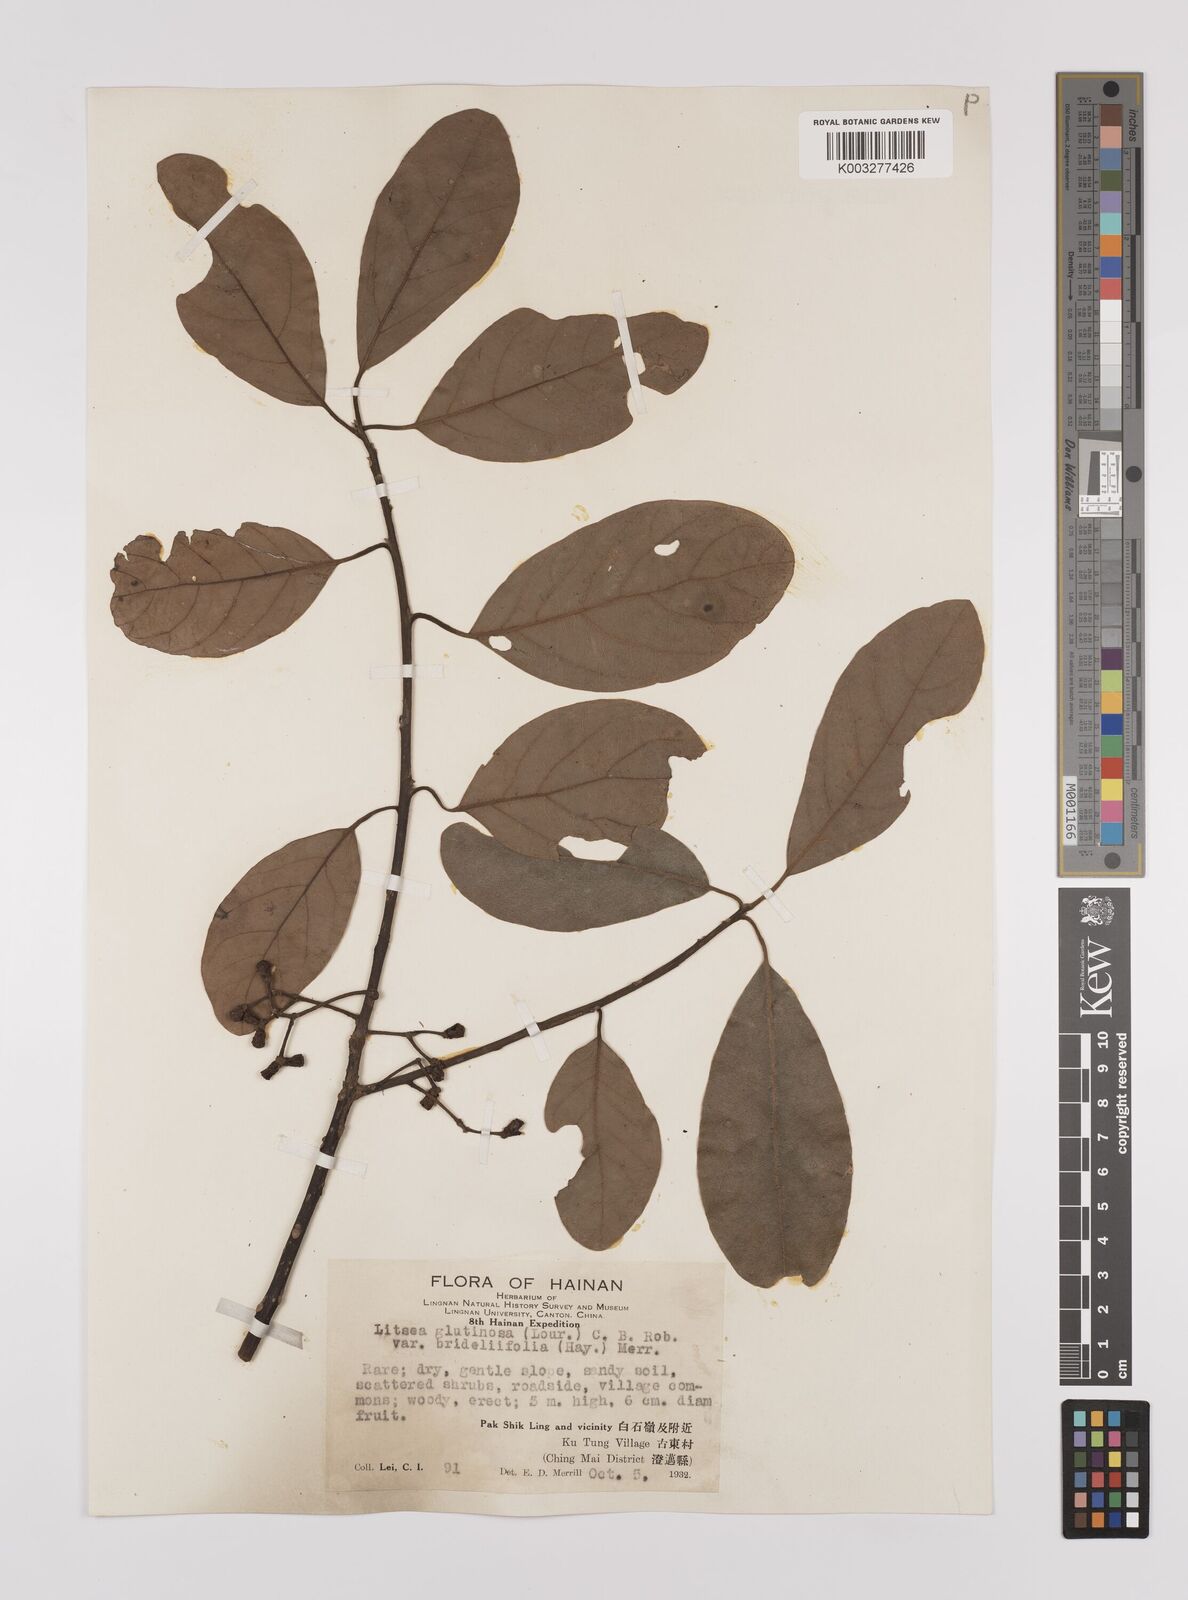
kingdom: Plantae
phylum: Tracheophyta
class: Magnoliopsida
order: Laurales
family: Lauraceae
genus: Litsea
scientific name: Litsea glutinosa
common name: Indian-laurel
